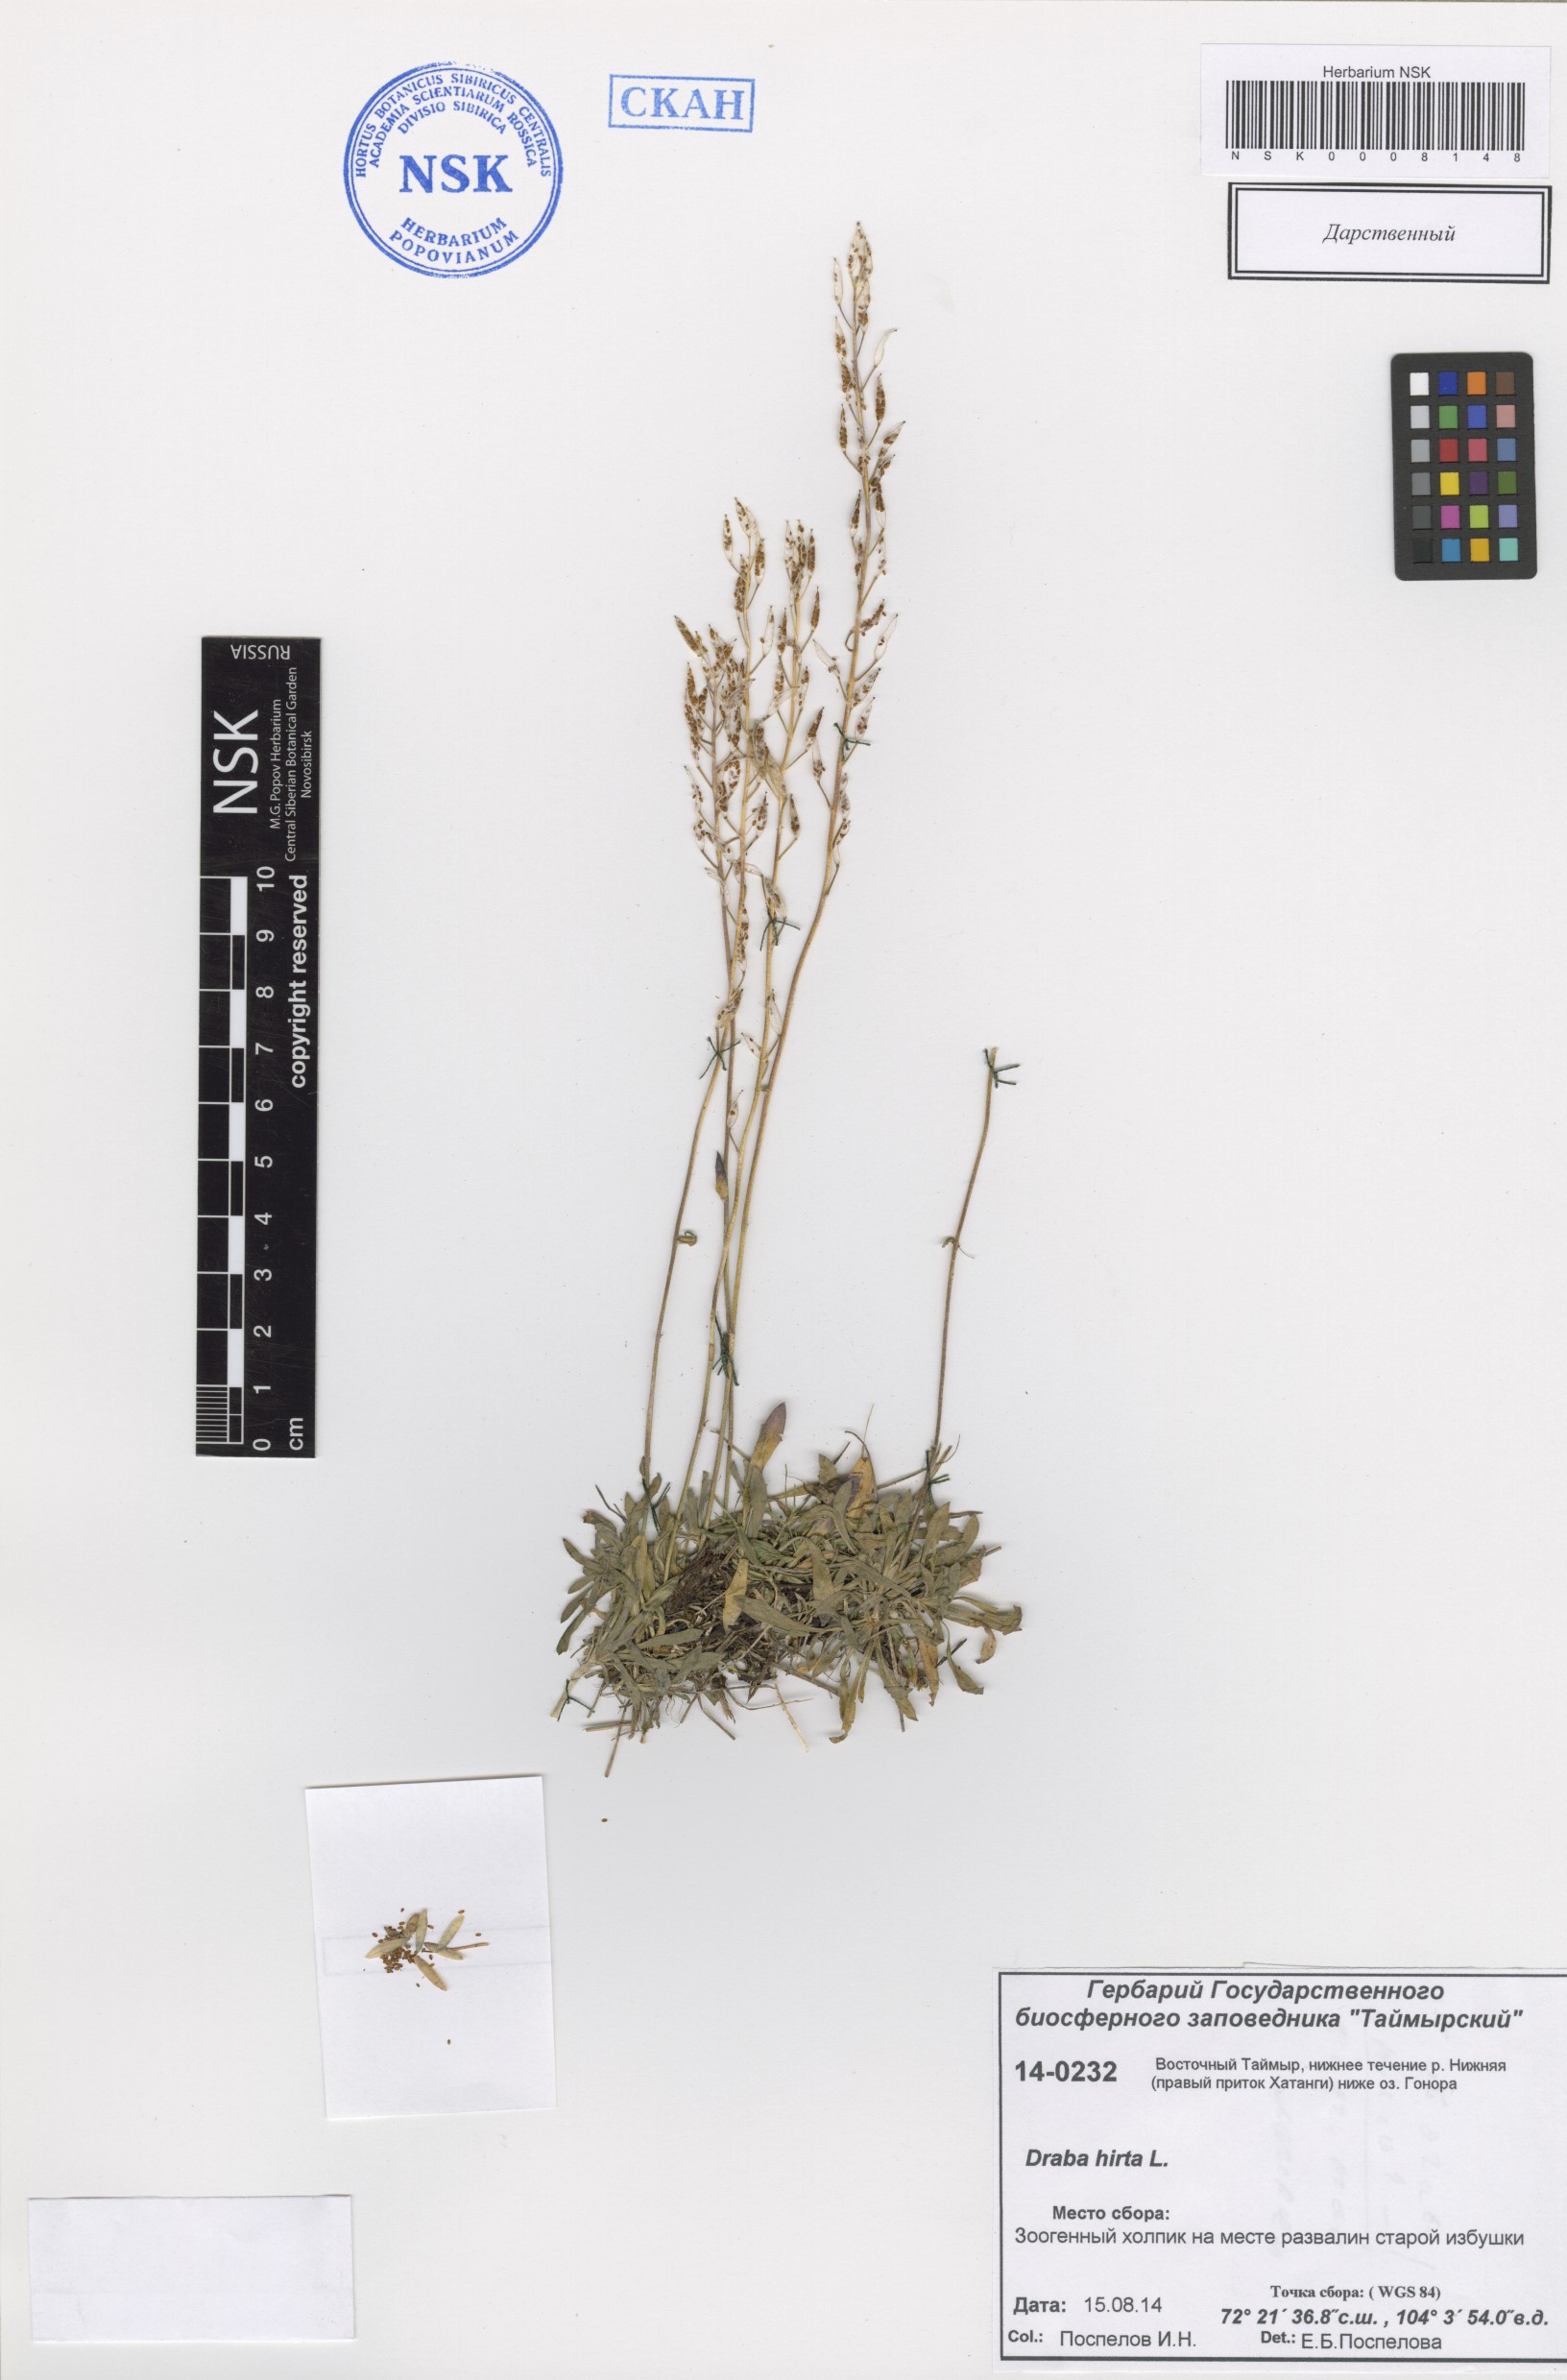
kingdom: Plantae
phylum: Tracheophyta
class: Magnoliopsida
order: Brassicales
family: Brassicaceae
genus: Draba
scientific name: Draba glabella
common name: Glaucous draba
